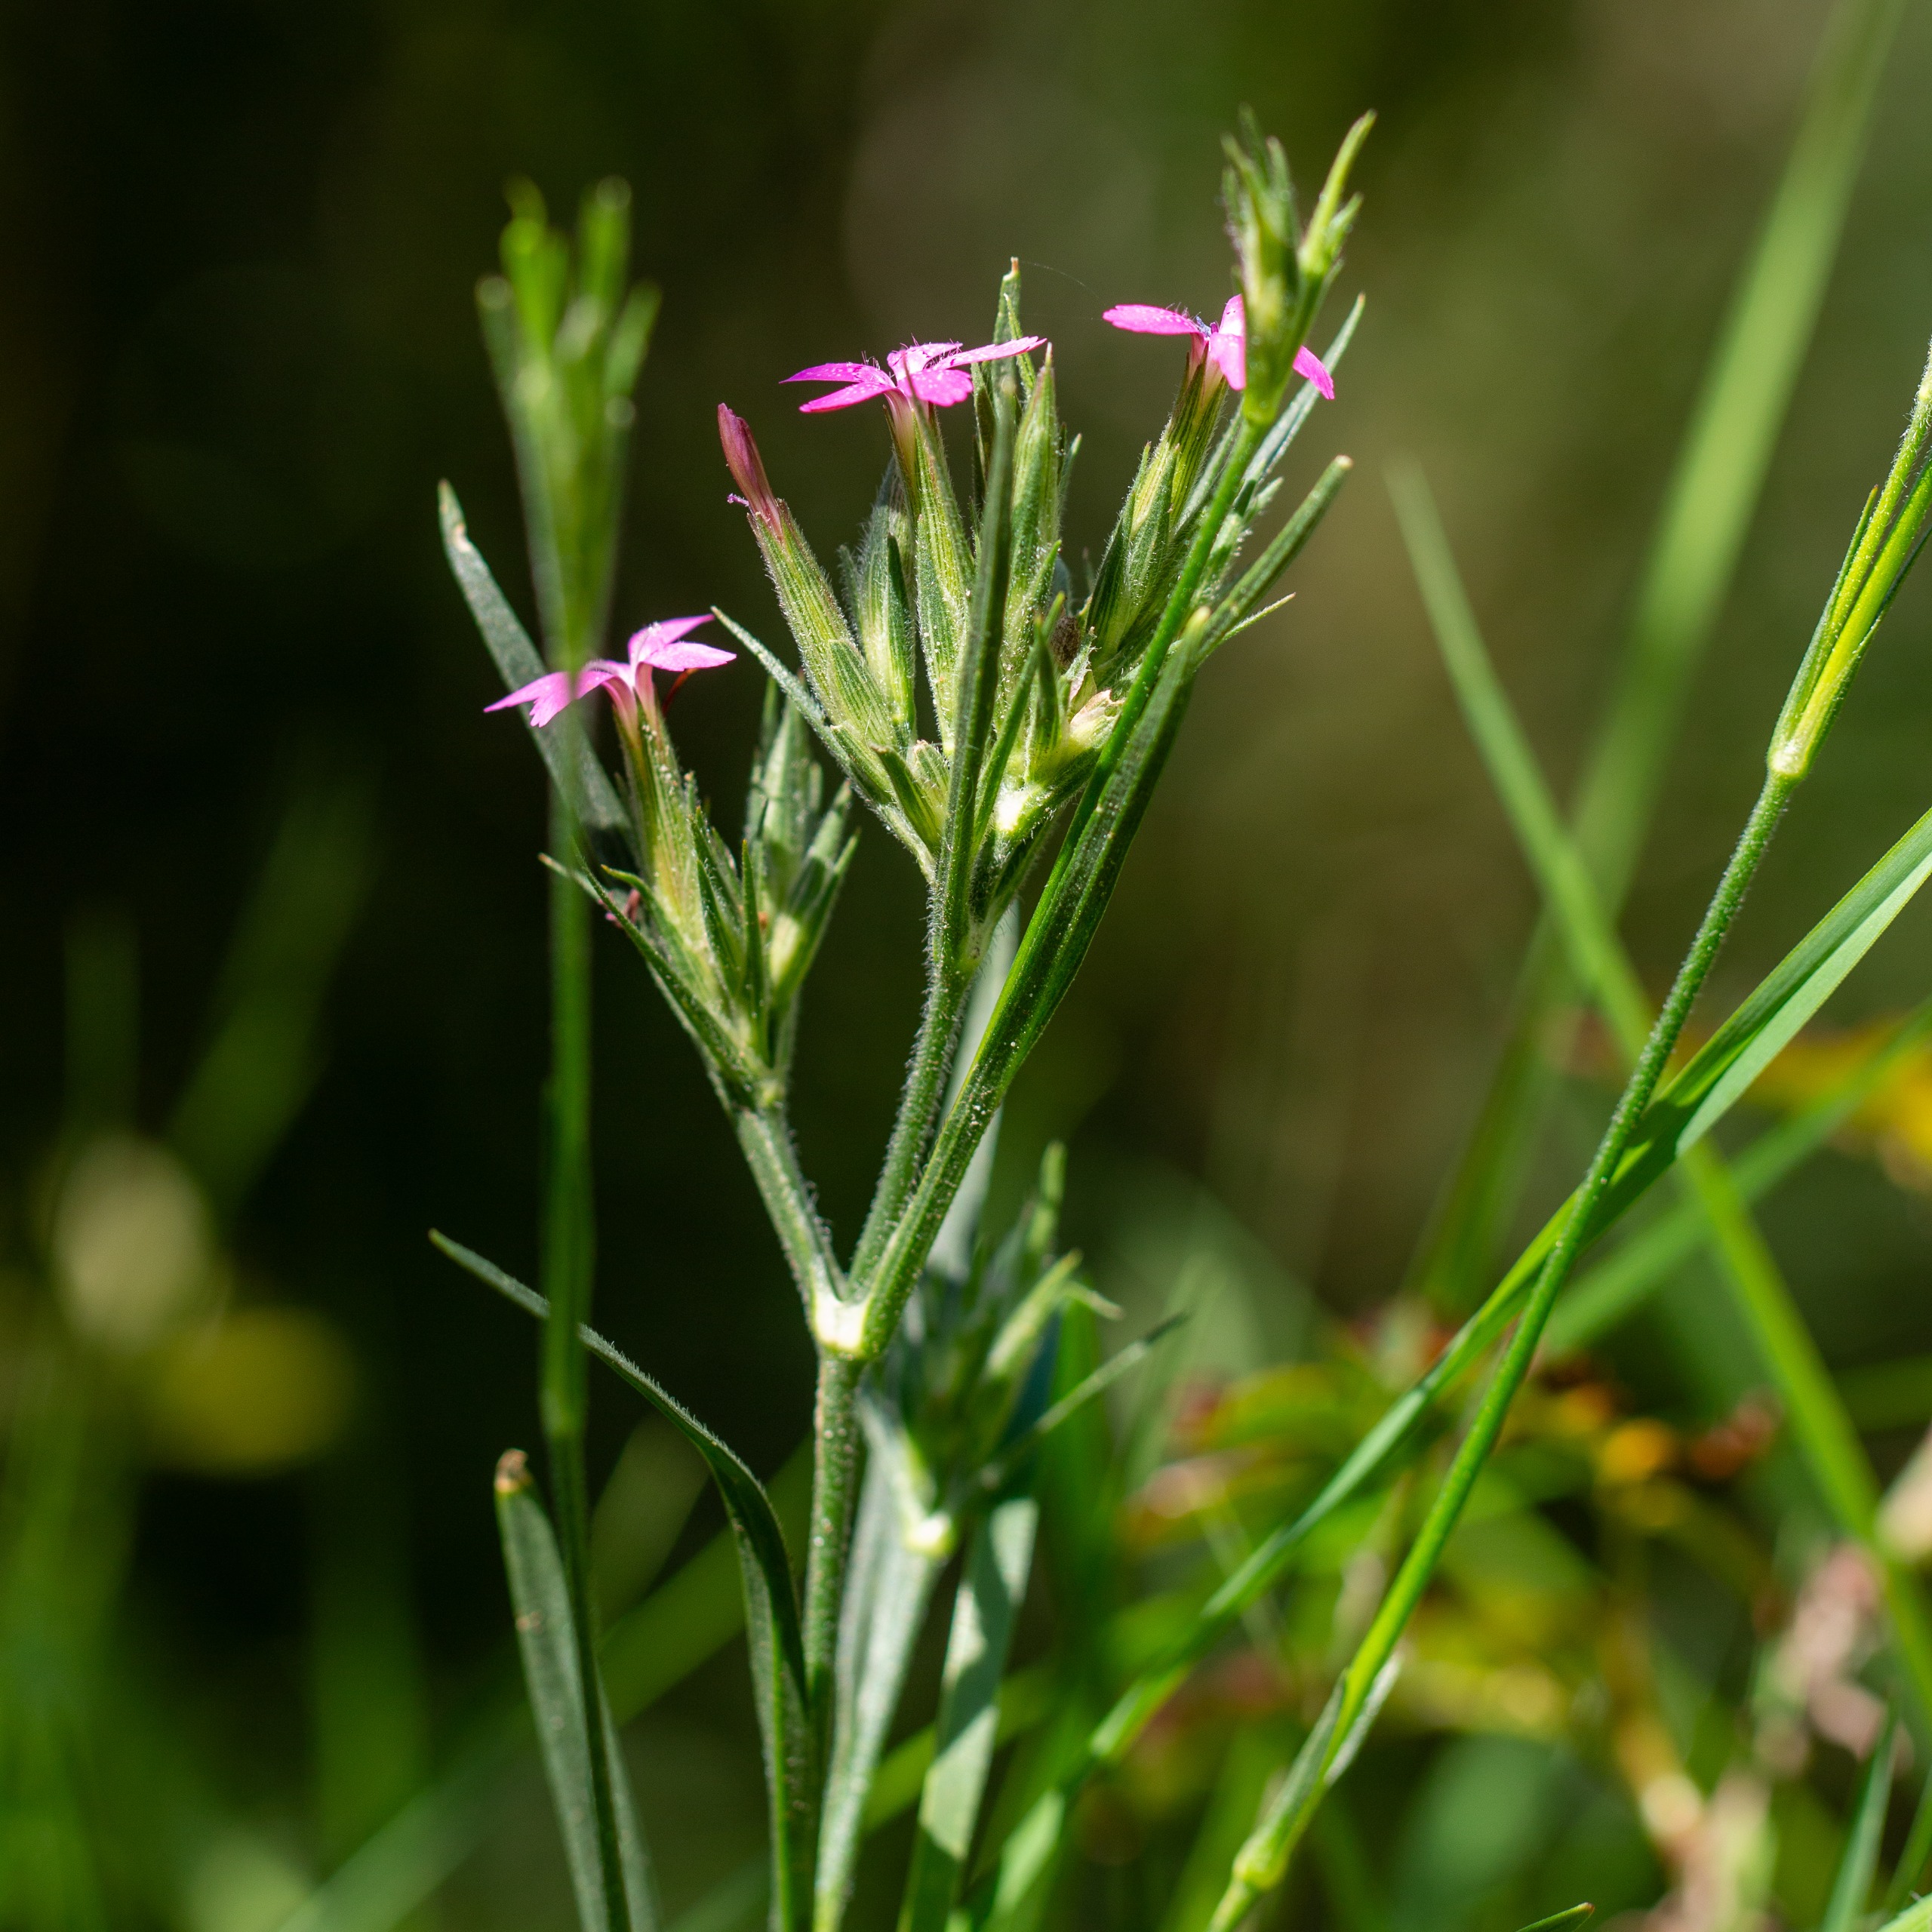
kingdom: Plantae
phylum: Tracheophyta
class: Magnoliopsida
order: Caryophyllales
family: Caryophyllaceae
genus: Dianthus
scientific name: Dianthus armeria
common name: Kost-nellike
